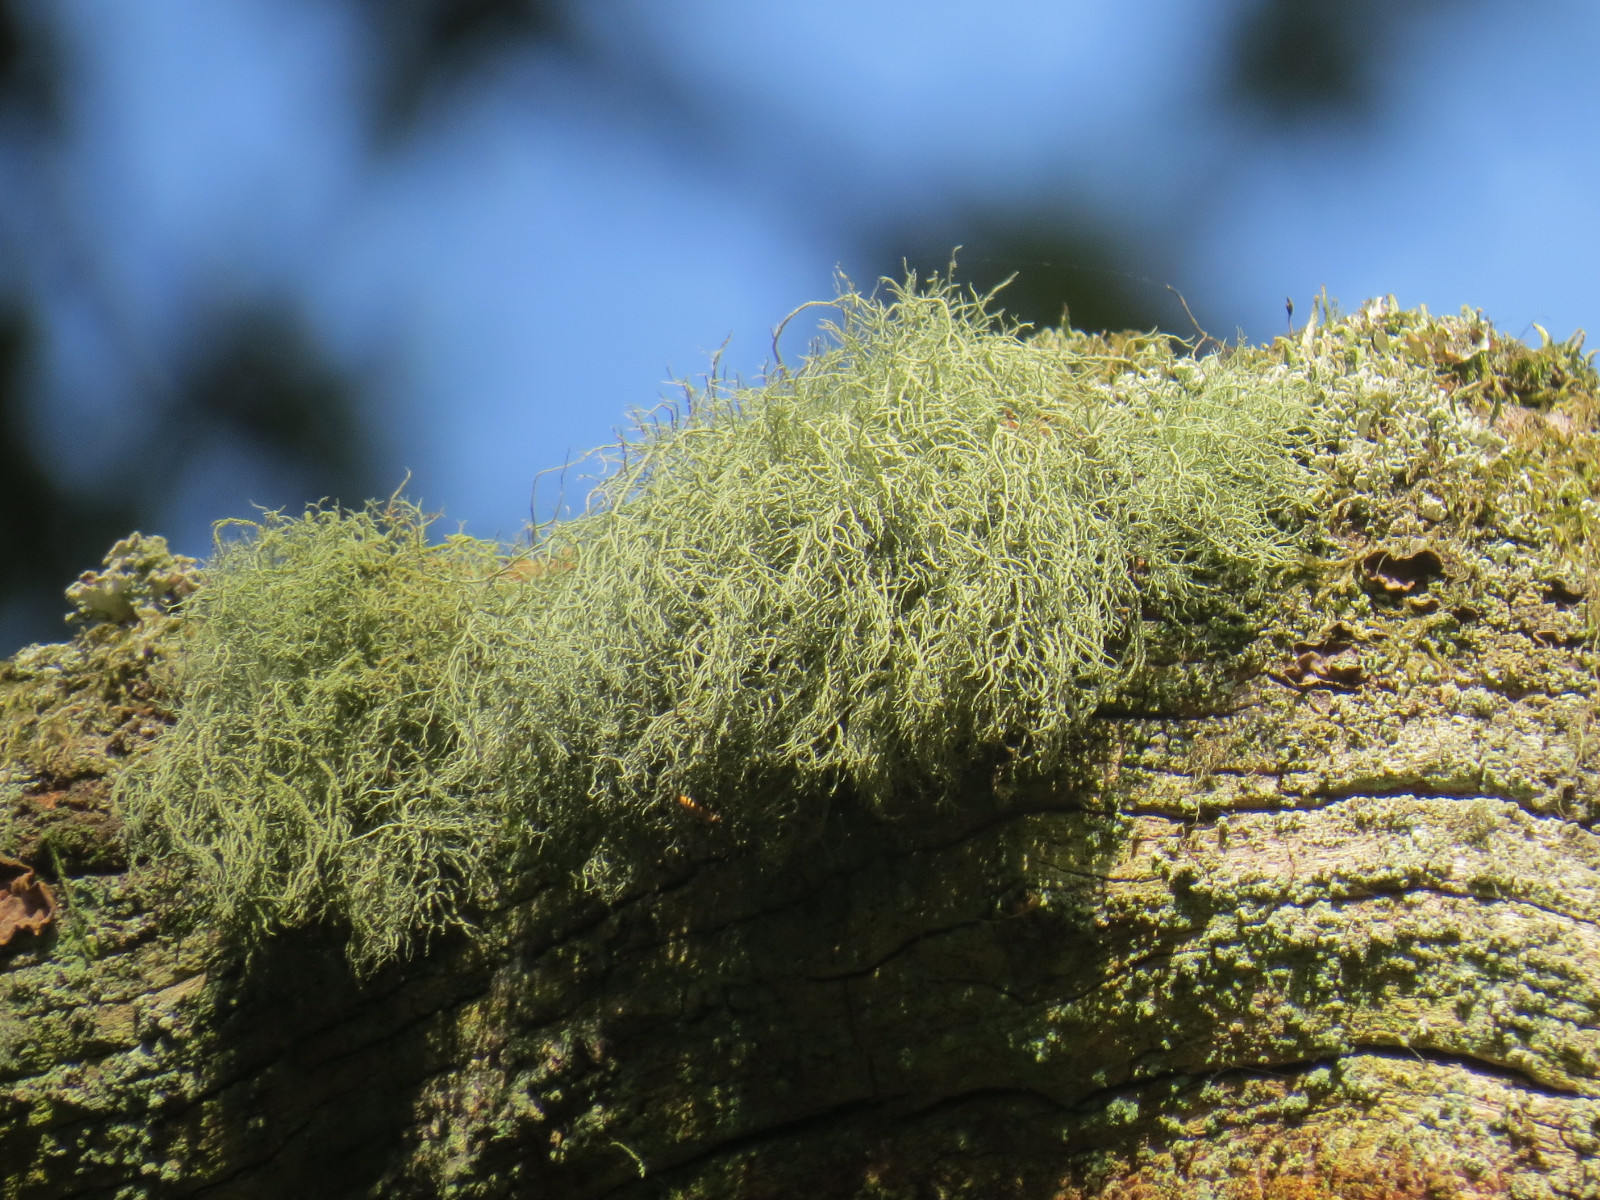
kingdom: Fungi
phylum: Ascomycota
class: Lecanoromycetes
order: Lecanorales
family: Parmeliaceae
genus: Usnea
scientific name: Usnea subfloridana
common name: busket skæglav
